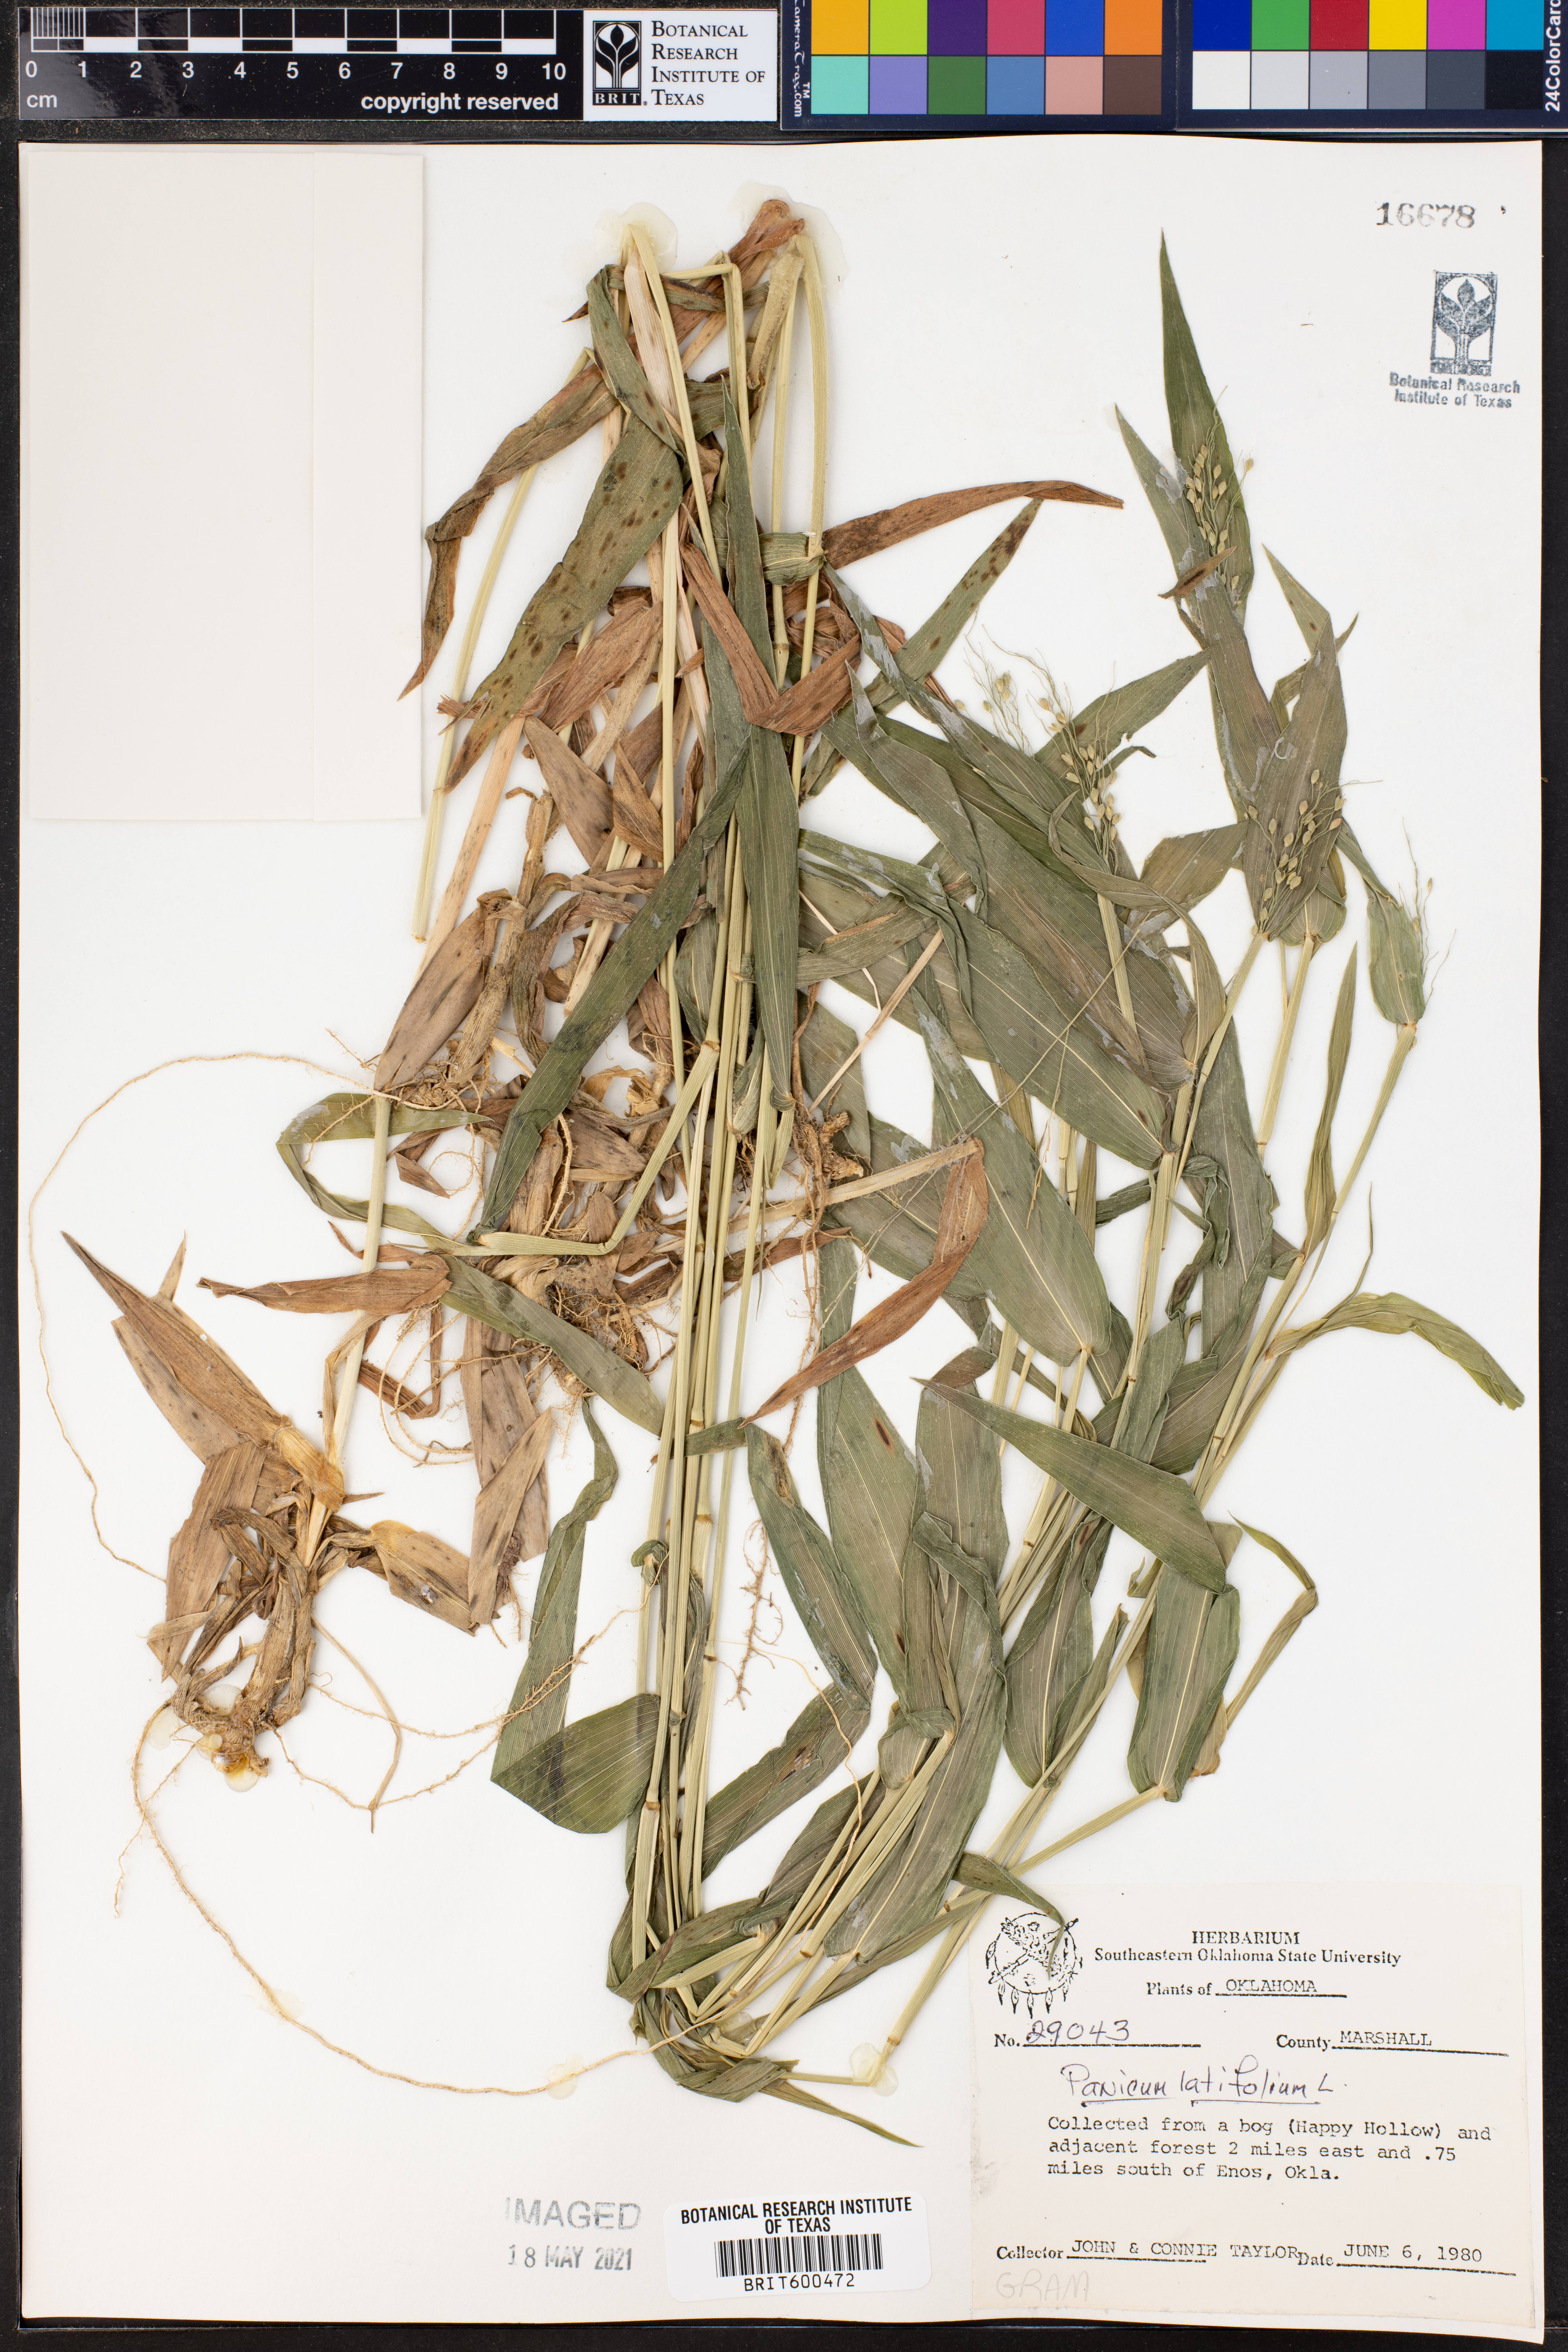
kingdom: Plantae
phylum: Tracheophyta
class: Liliopsida
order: Poales
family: Poaceae
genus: Dichanthelium
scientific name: Dichanthelium latifolium
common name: Broad-leaved panicgrass
